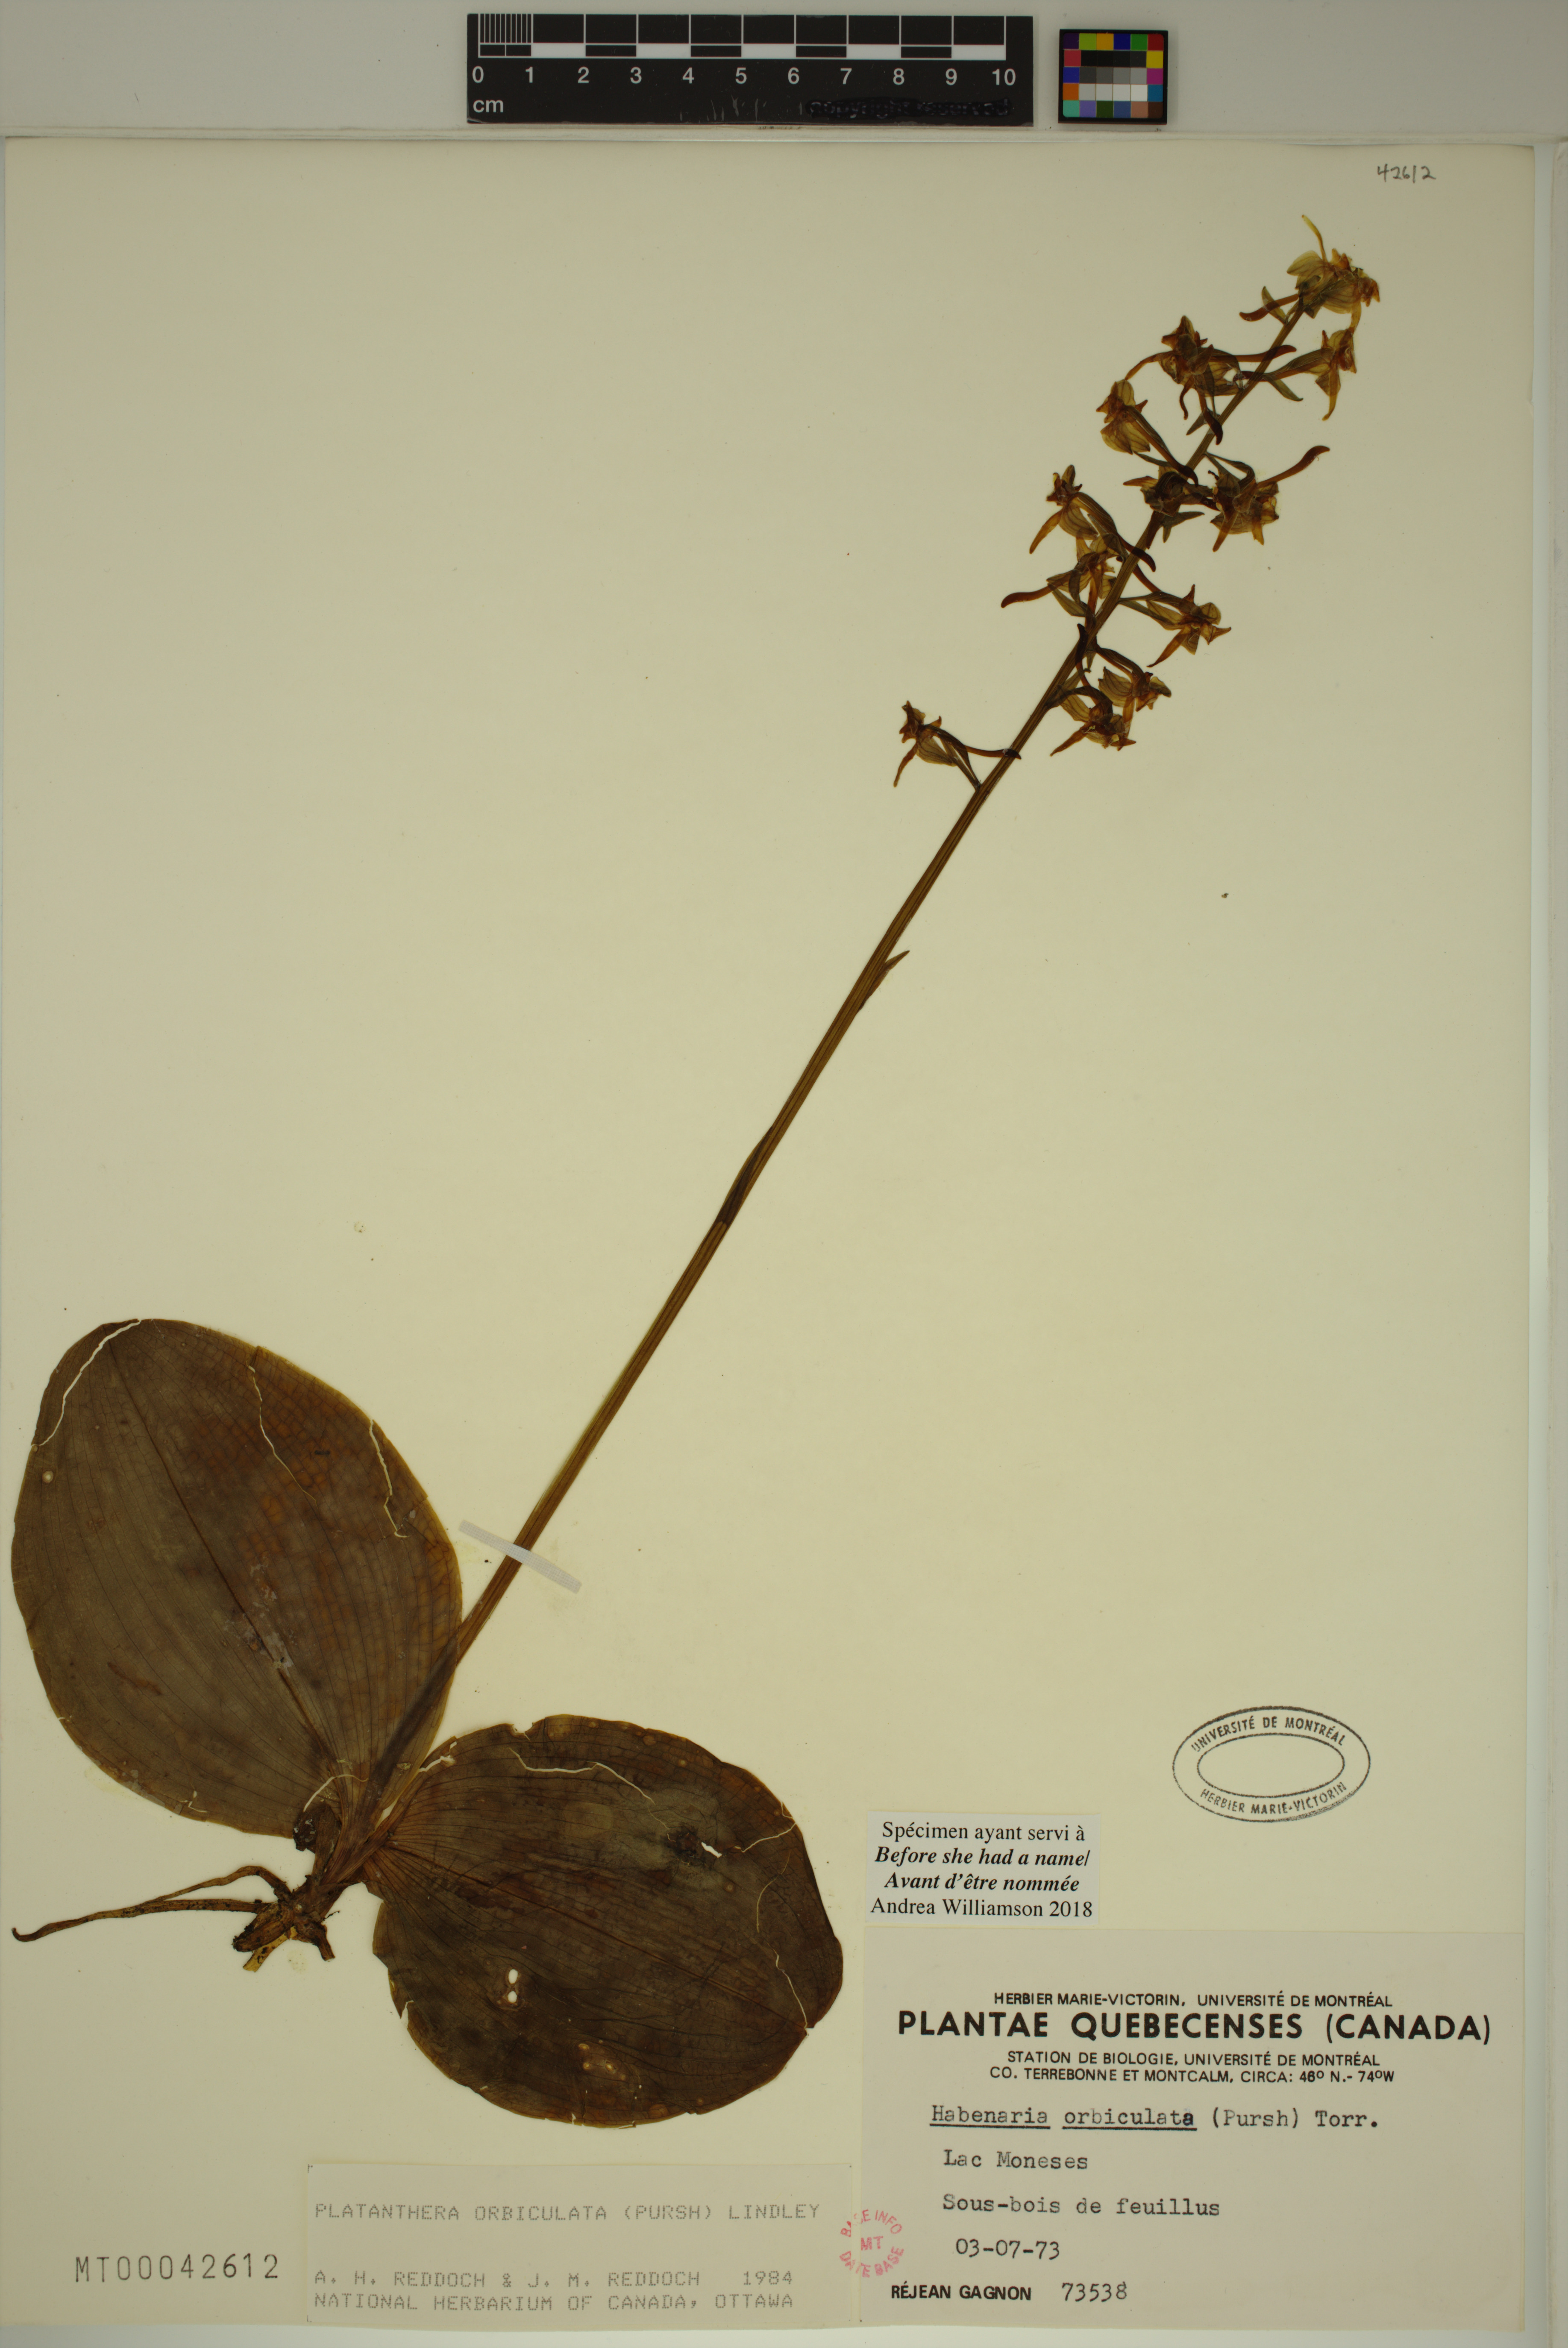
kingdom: Plantae
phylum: Tracheophyta
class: Liliopsida
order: Asparagales
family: Orchidaceae
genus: Platanthera
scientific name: Platanthera orbiculata
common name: Large round-leaved orchid
